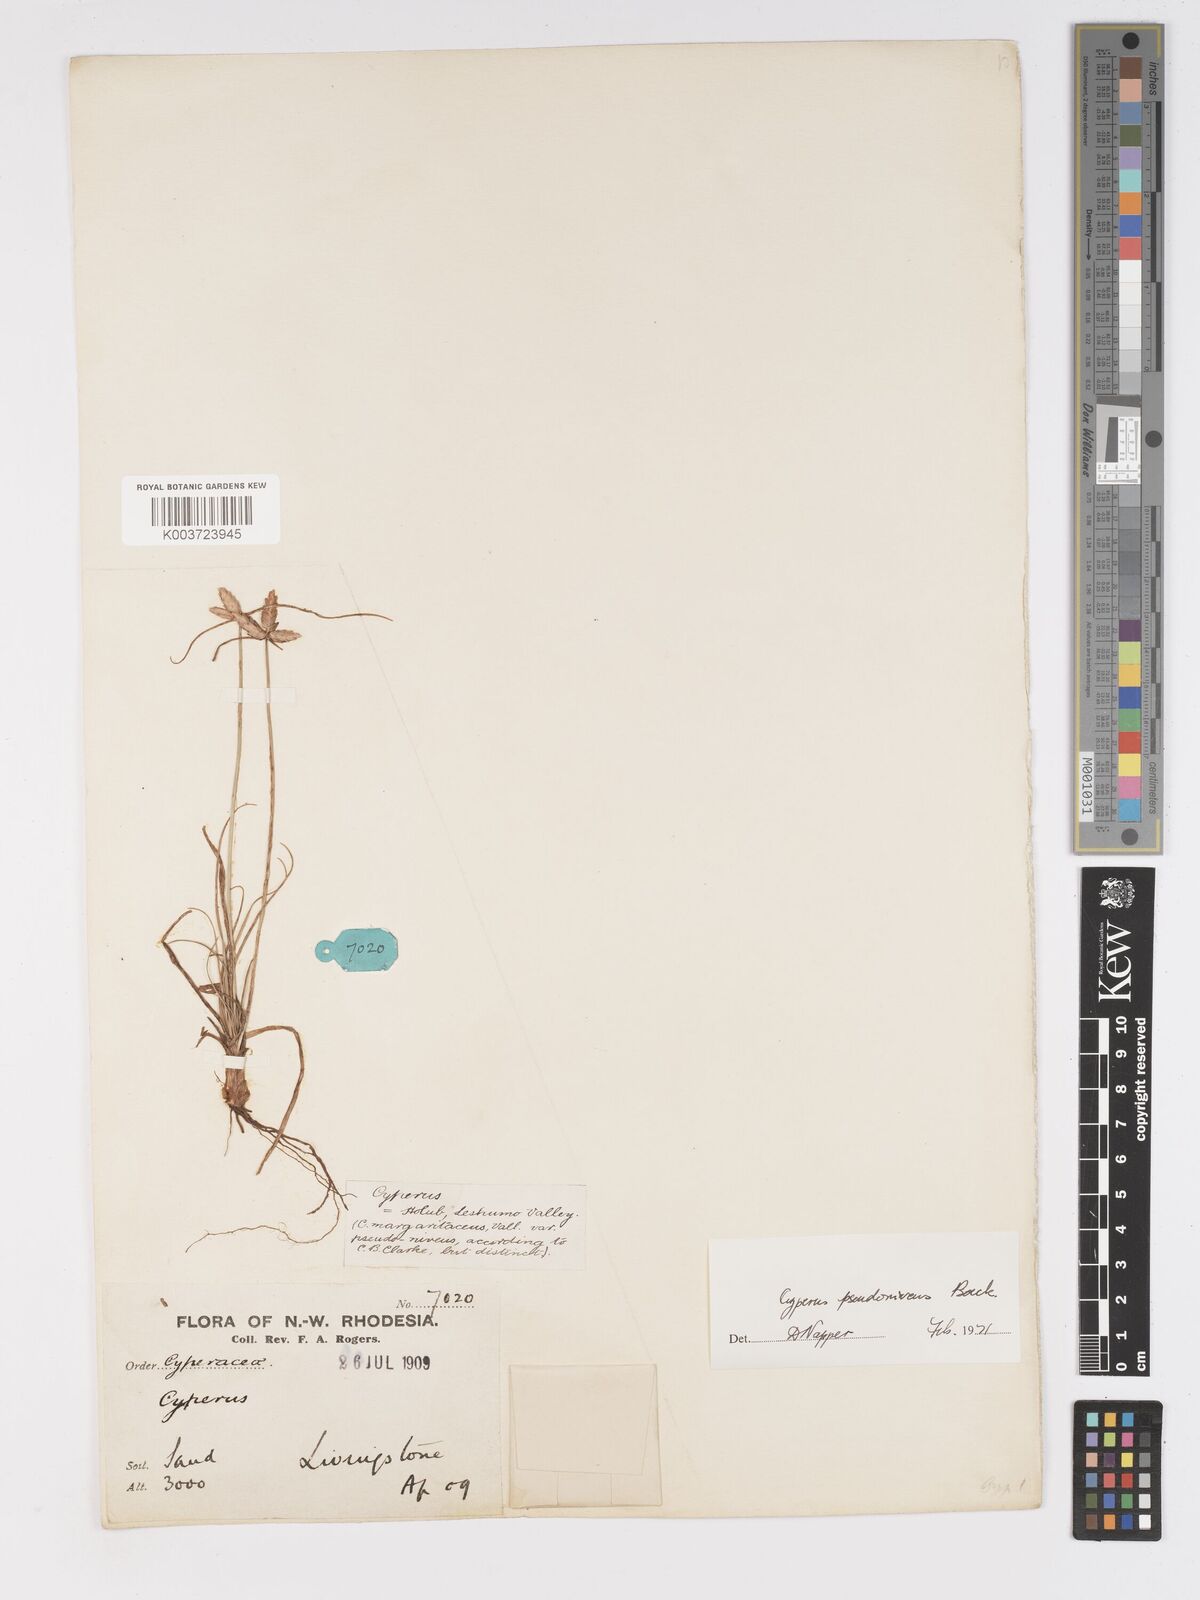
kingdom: Plantae
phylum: Tracheophyta
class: Liliopsida
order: Poales
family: Cyperaceae
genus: Cyperus
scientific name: Cyperus margaritaceus
